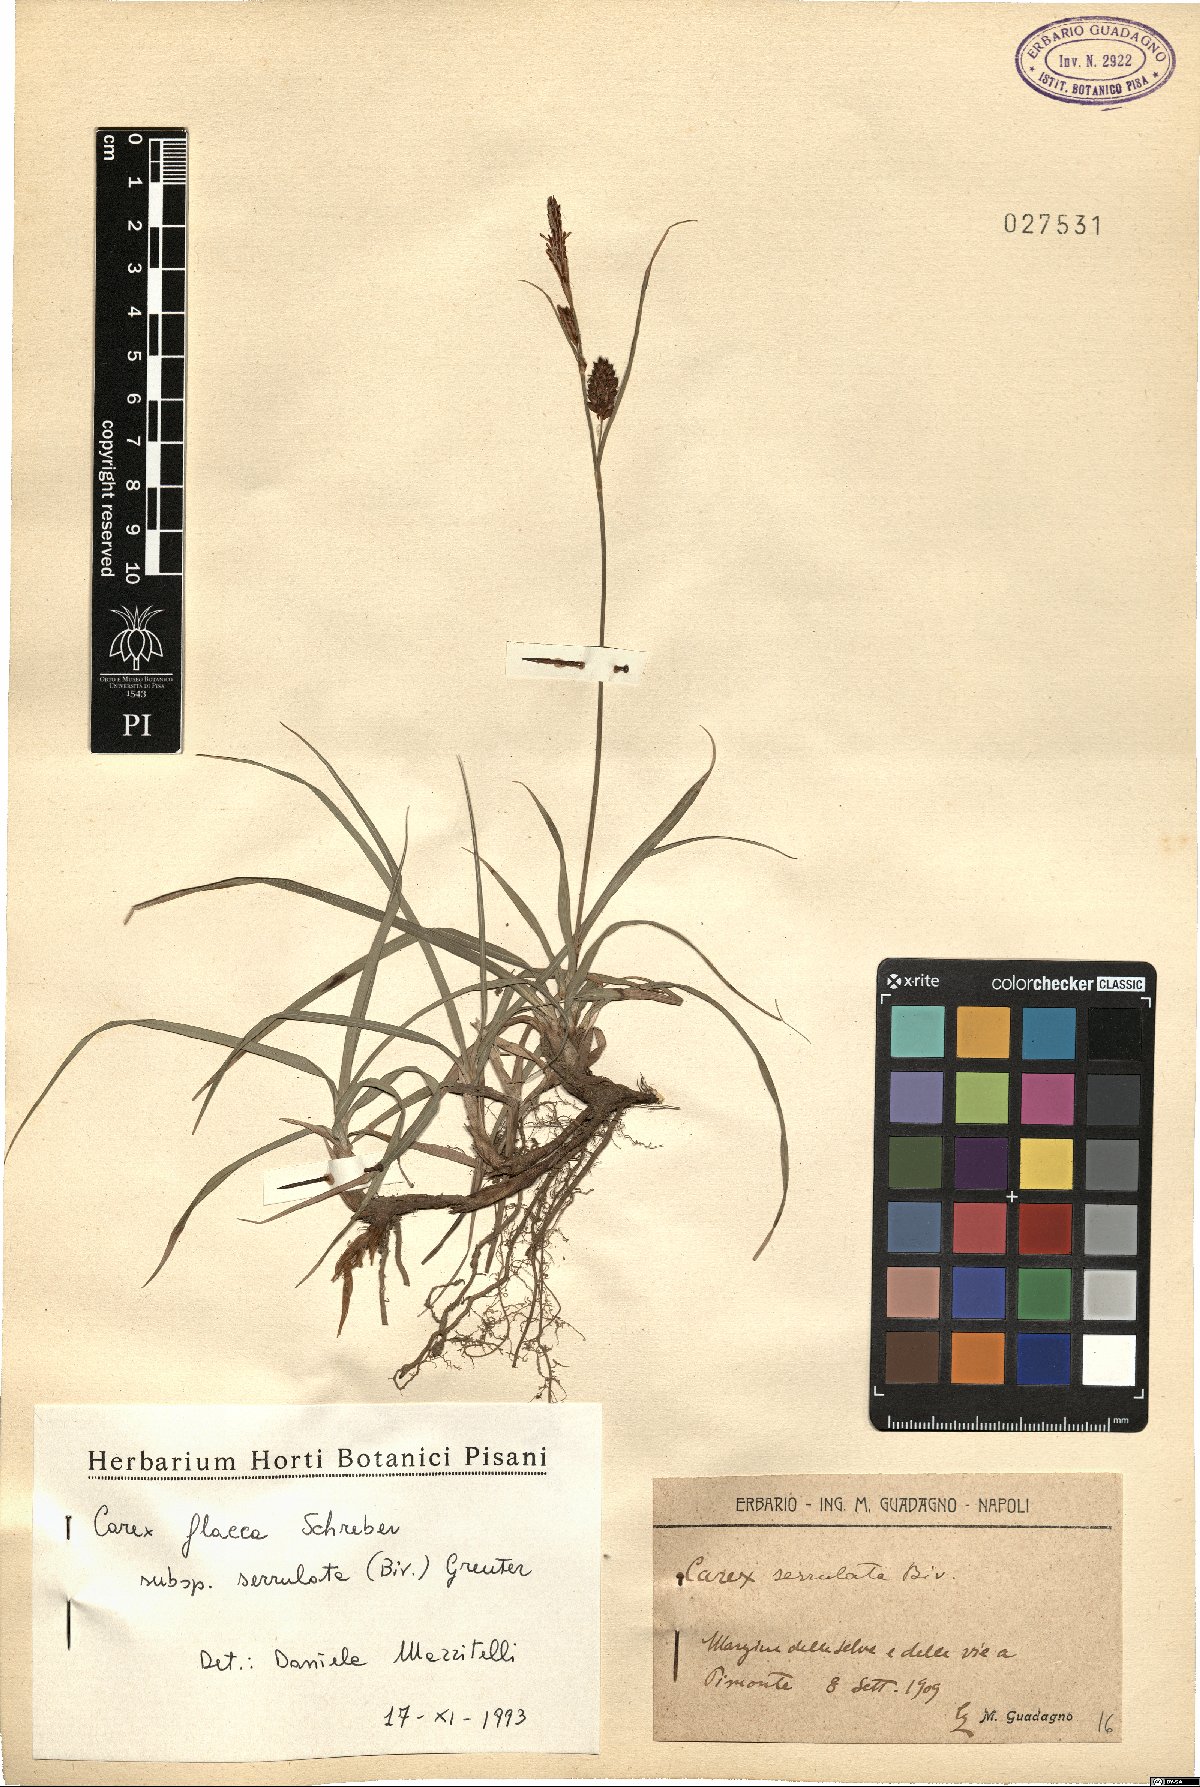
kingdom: Plantae
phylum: Tracheophyta
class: Liliopsida
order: Poales
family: Cyperaceae
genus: Carex
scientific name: Carex flacca
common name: Glaucous sedge
